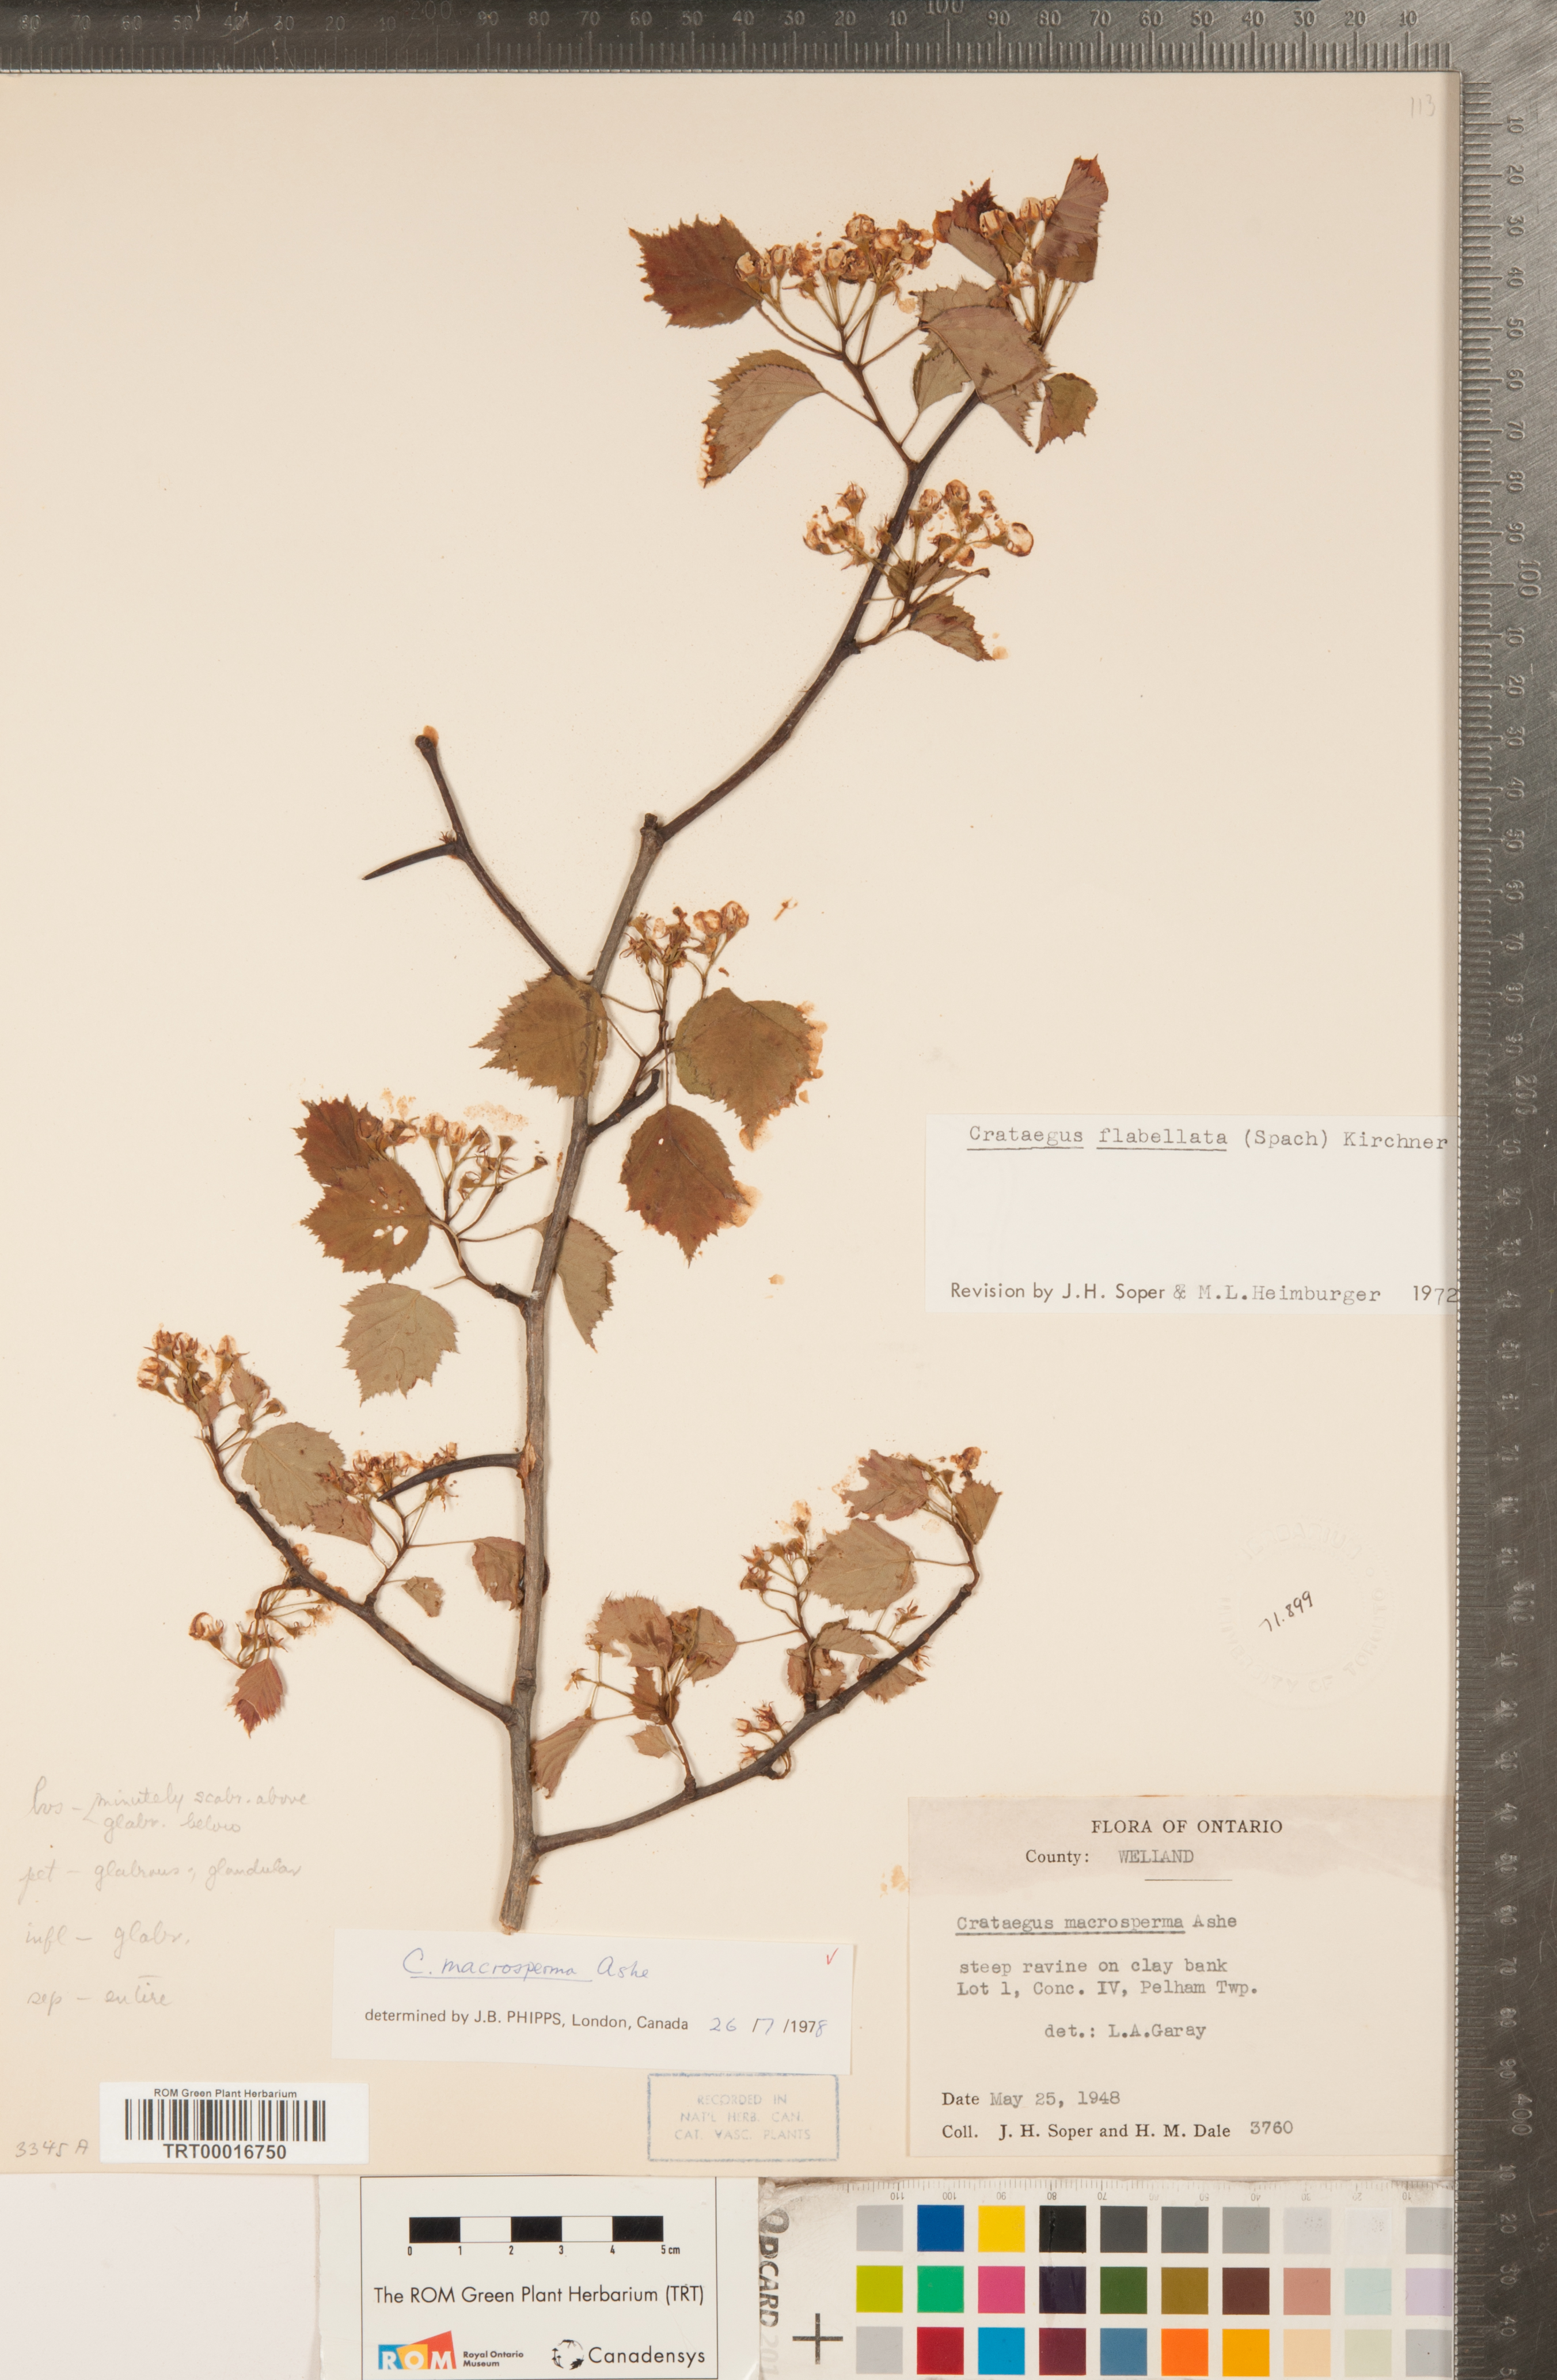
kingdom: Plantae
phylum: Tracheophyta
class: Magnoliopsida
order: Rosales
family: Rosaceae
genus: Crataegus
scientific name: Crataegus macrosperma
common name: Variable hawthorn
